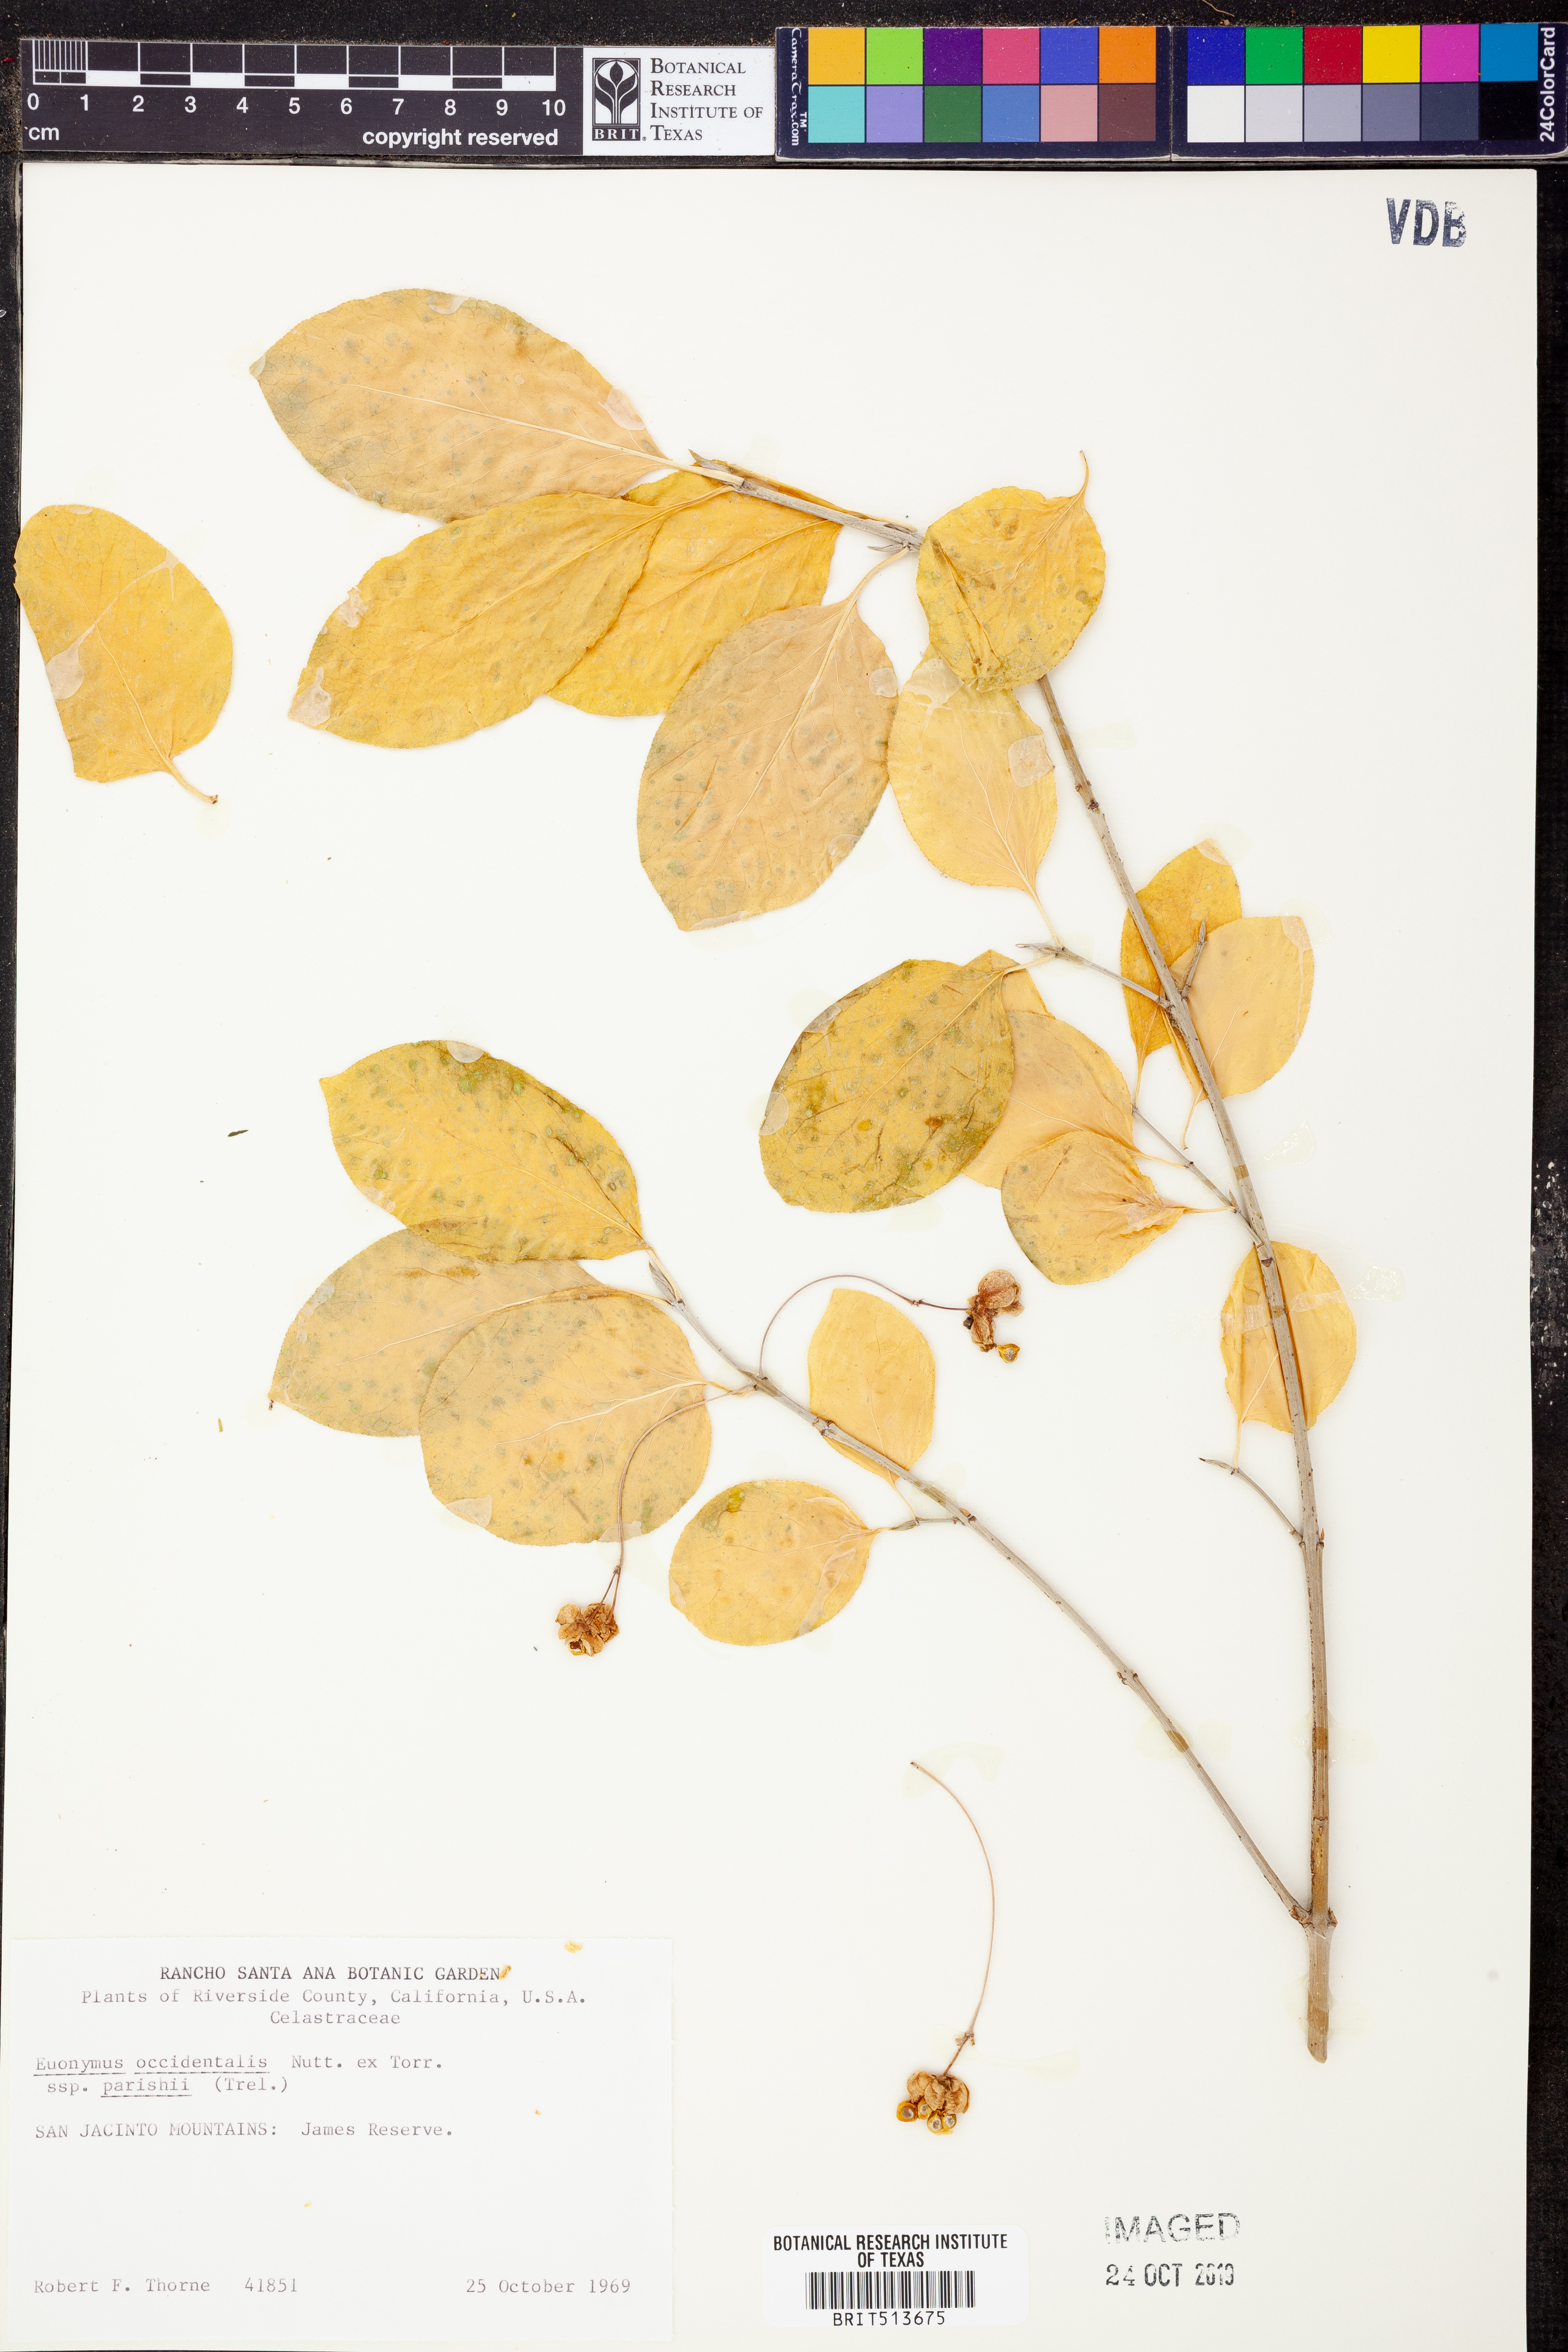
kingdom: Plantae
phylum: Tracheophyta
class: Magnoliopsida
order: Celastrales
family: Celastraceae
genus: Euonymus
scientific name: Euonymus occidentalis
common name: Western burningbush
